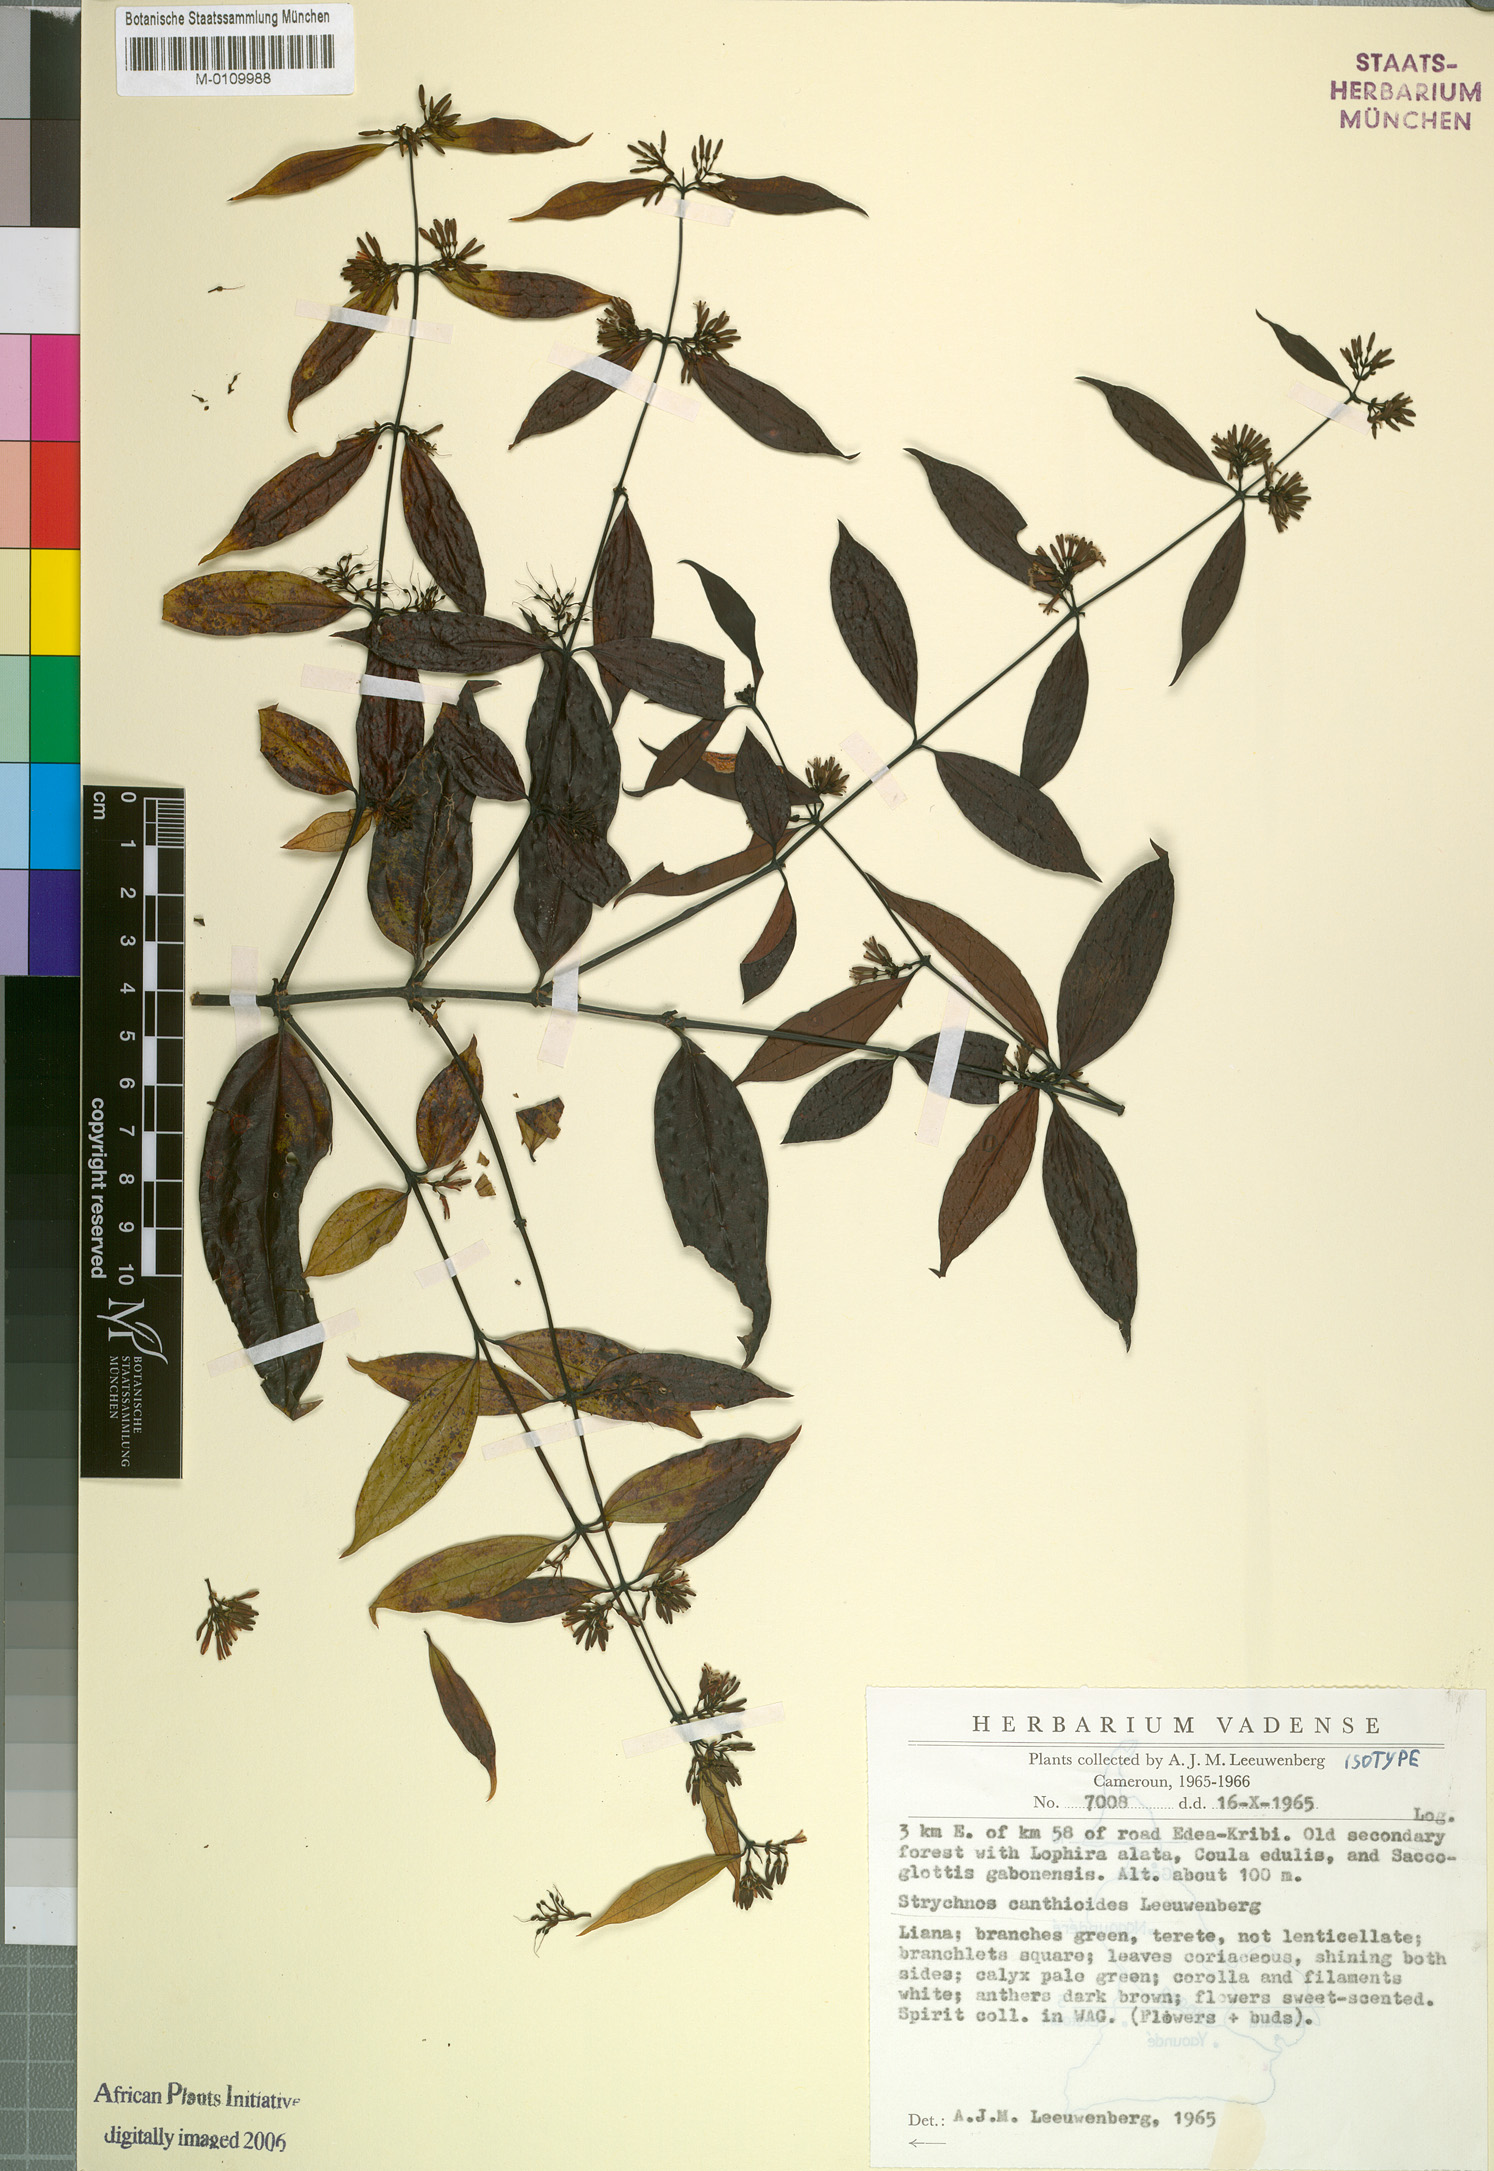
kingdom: Plantae
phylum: Tracheophyta
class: Magnoliopsida
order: Gentianales
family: Loganiaceae
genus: Strychnos
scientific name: Strychnos canthioides
